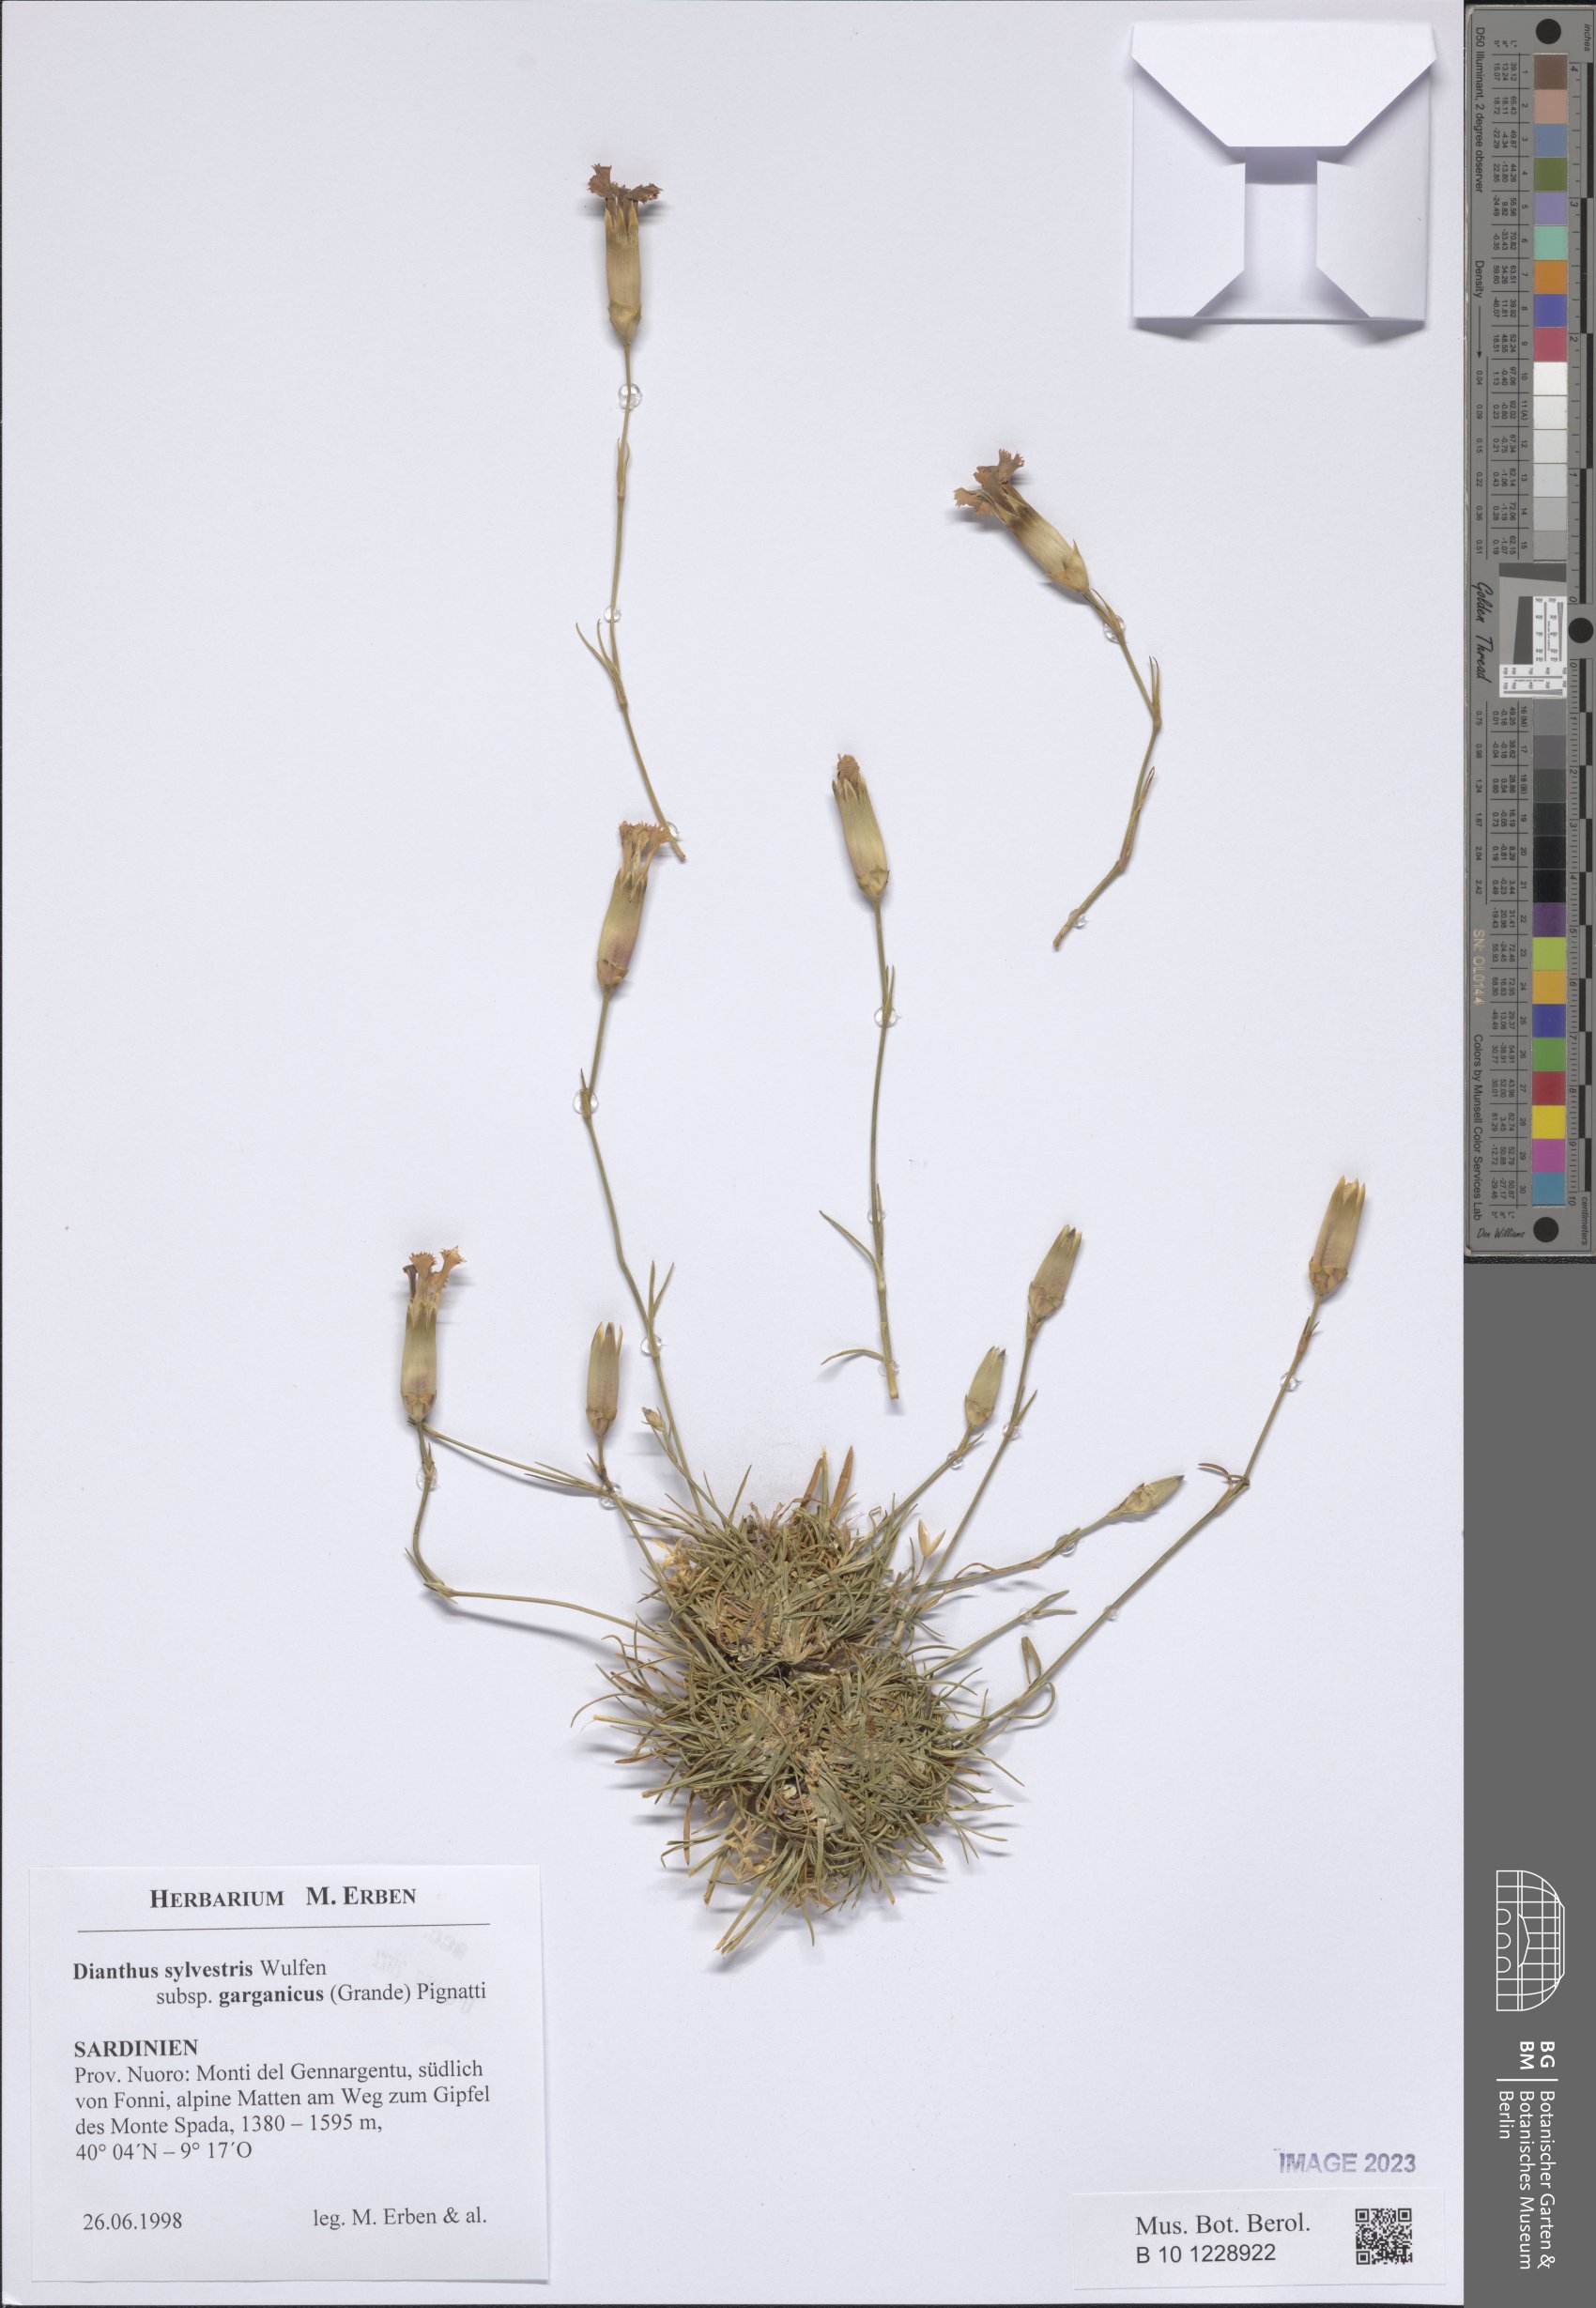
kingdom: Plantae
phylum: Tracheophyta
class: Magnoliopsida
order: Caryophyllales
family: Caryophyllaceae
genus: Dianthus
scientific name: Dianthus tarentinus
